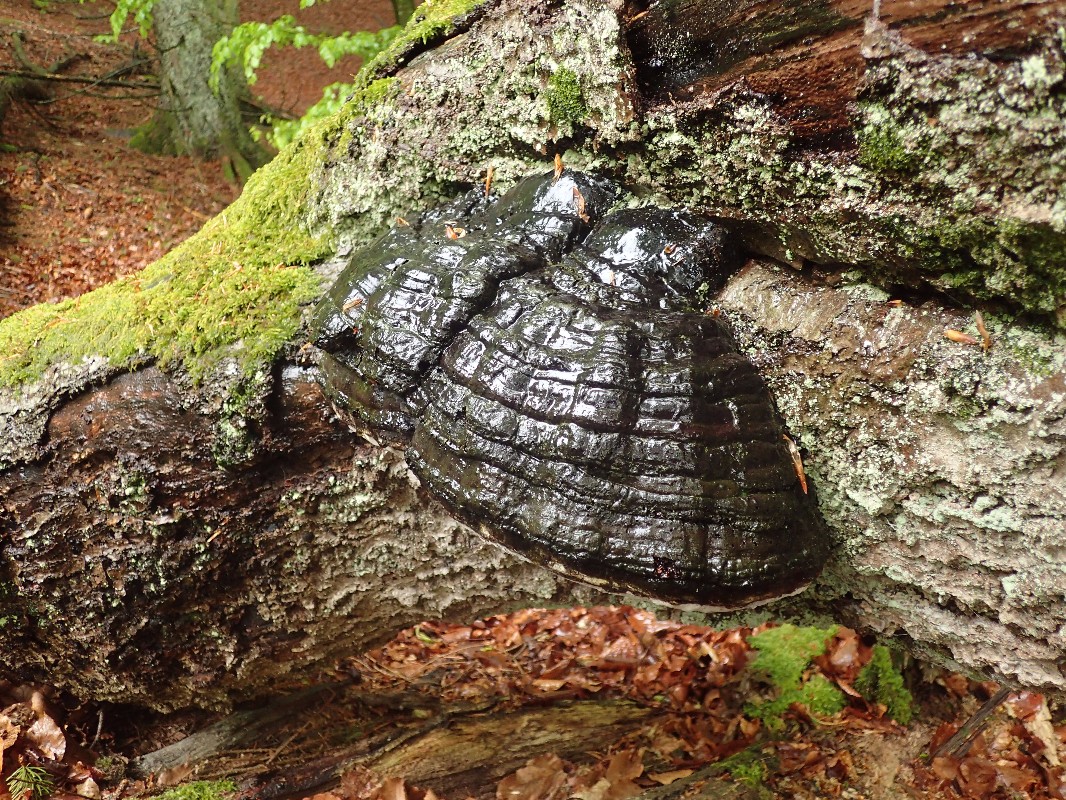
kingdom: Fungi
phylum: Basidiomycota
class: Agaricomycetes
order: Polyporales
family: Polyporaceae
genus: Fomes
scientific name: Fomes fomentarius
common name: tøndersvamp
